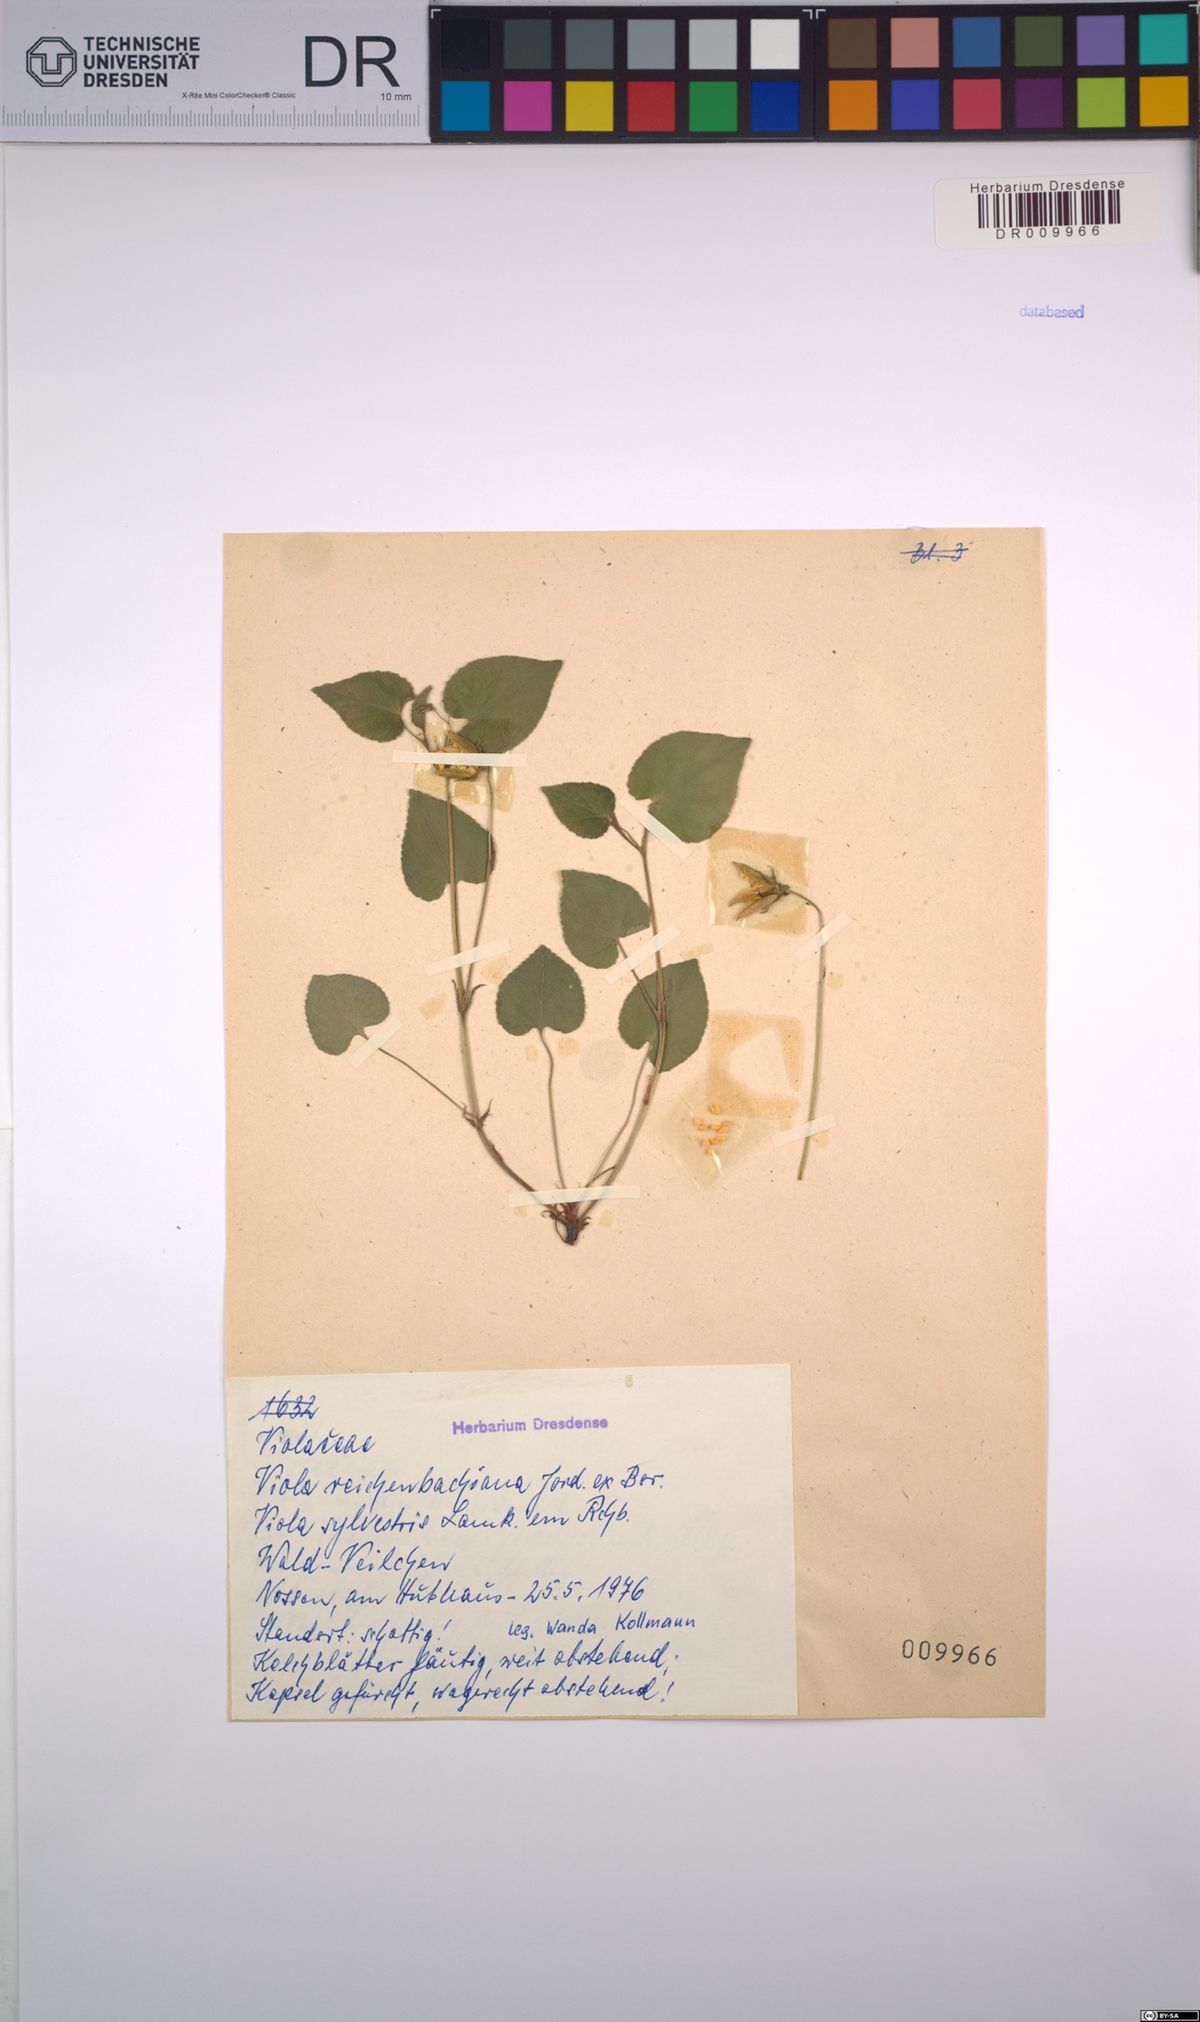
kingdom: Plantae
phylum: Tracheophyta
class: Magnoliopsida
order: Malpighiales
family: Violaceae
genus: Viola
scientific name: Viola reichenbachiana
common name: Early dog-violet
